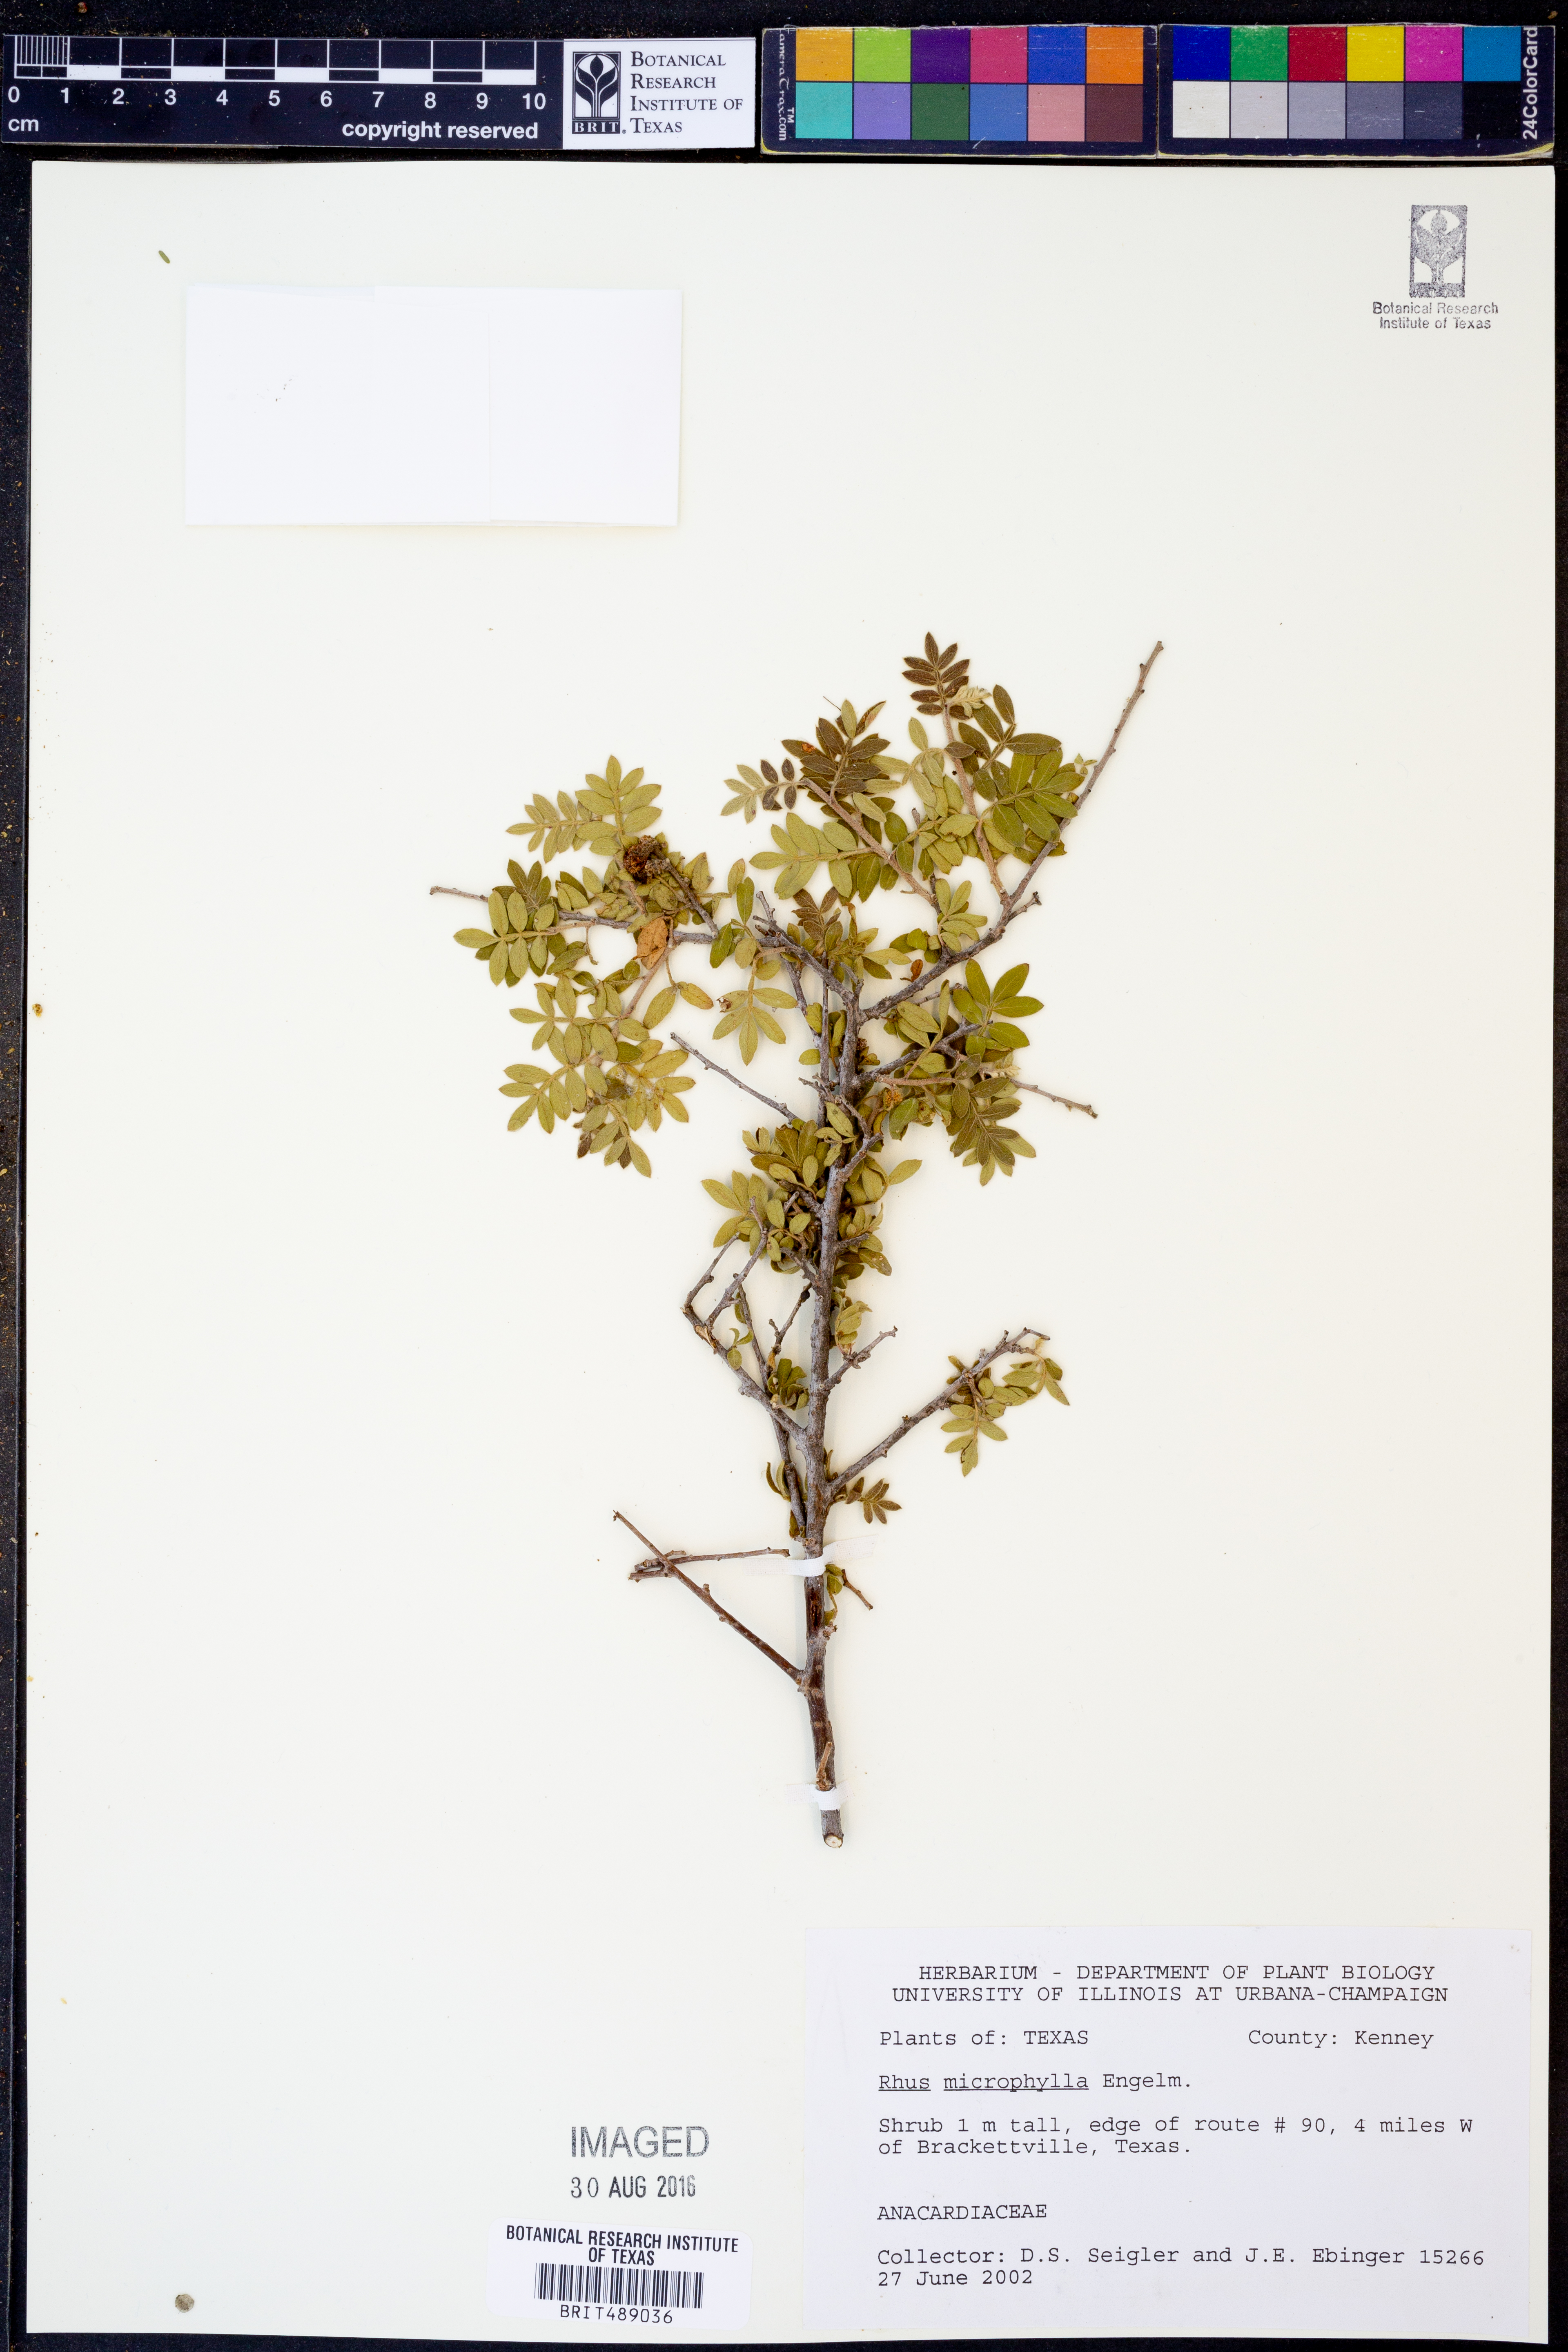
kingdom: Plantae
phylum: Tracheophyta
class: Magnoliopsida
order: Sapindales
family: Anacardiaceae
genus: Rhus
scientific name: Rhus microphylla
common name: Desert sumac
